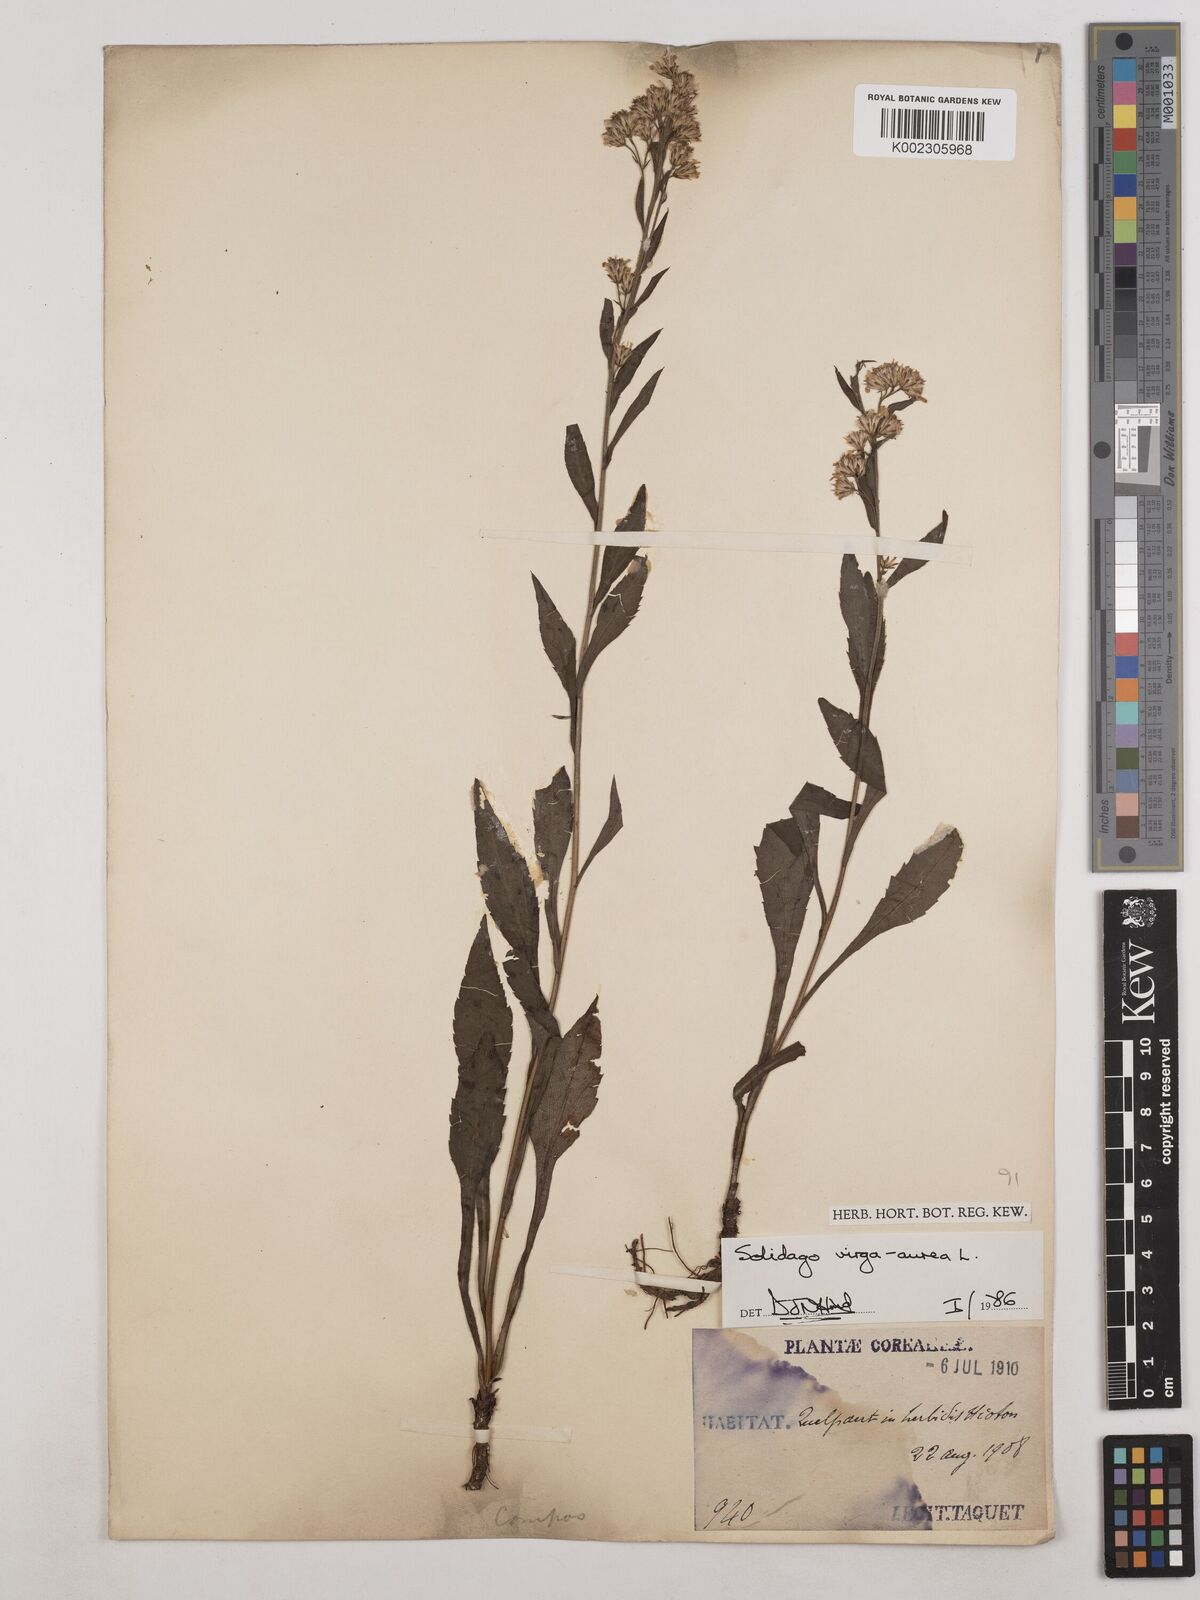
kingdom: Plantae
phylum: Tracheophyta
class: Magnoliopsida
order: Asterales
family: Asteraceae
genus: Solidago
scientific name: Solidago virgaurea
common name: Goldenrod
